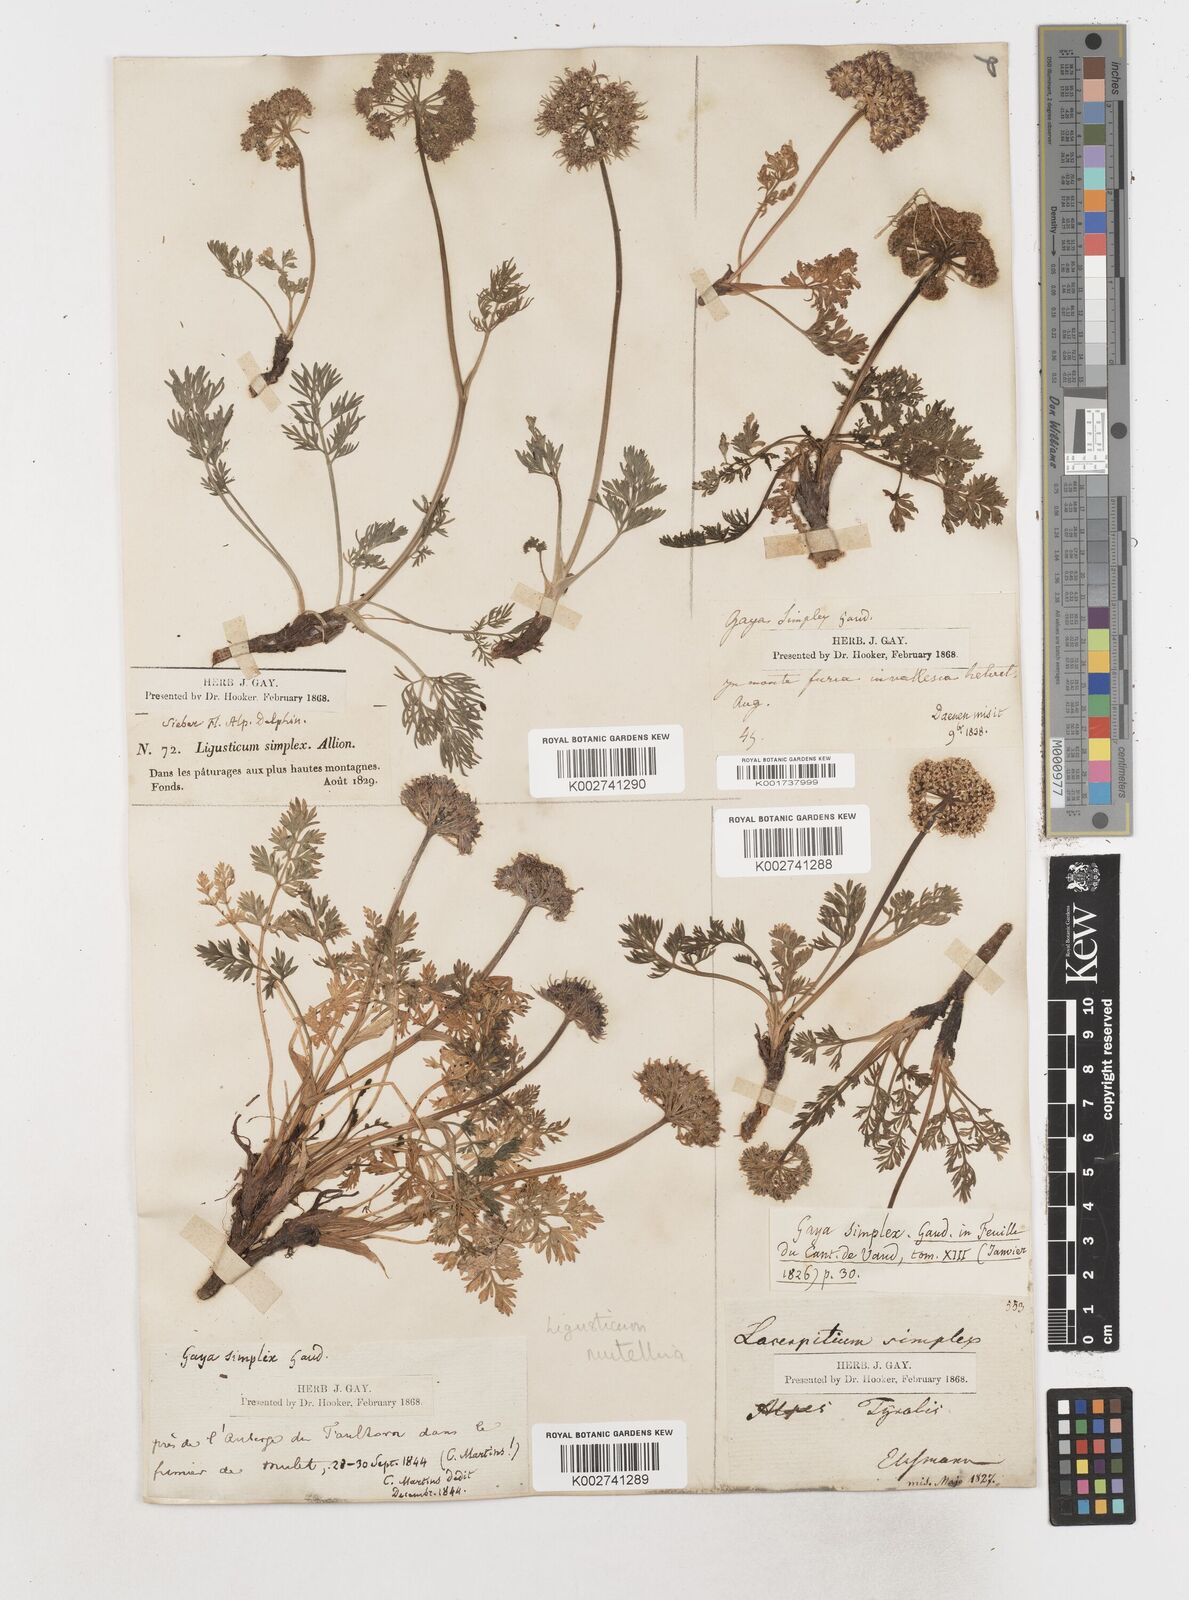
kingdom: Plantae
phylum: Tracheophyta
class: Magnoliopsida
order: Apiales
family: Apiaceae
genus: Mutellina
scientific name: Mutellina adonidifolia
